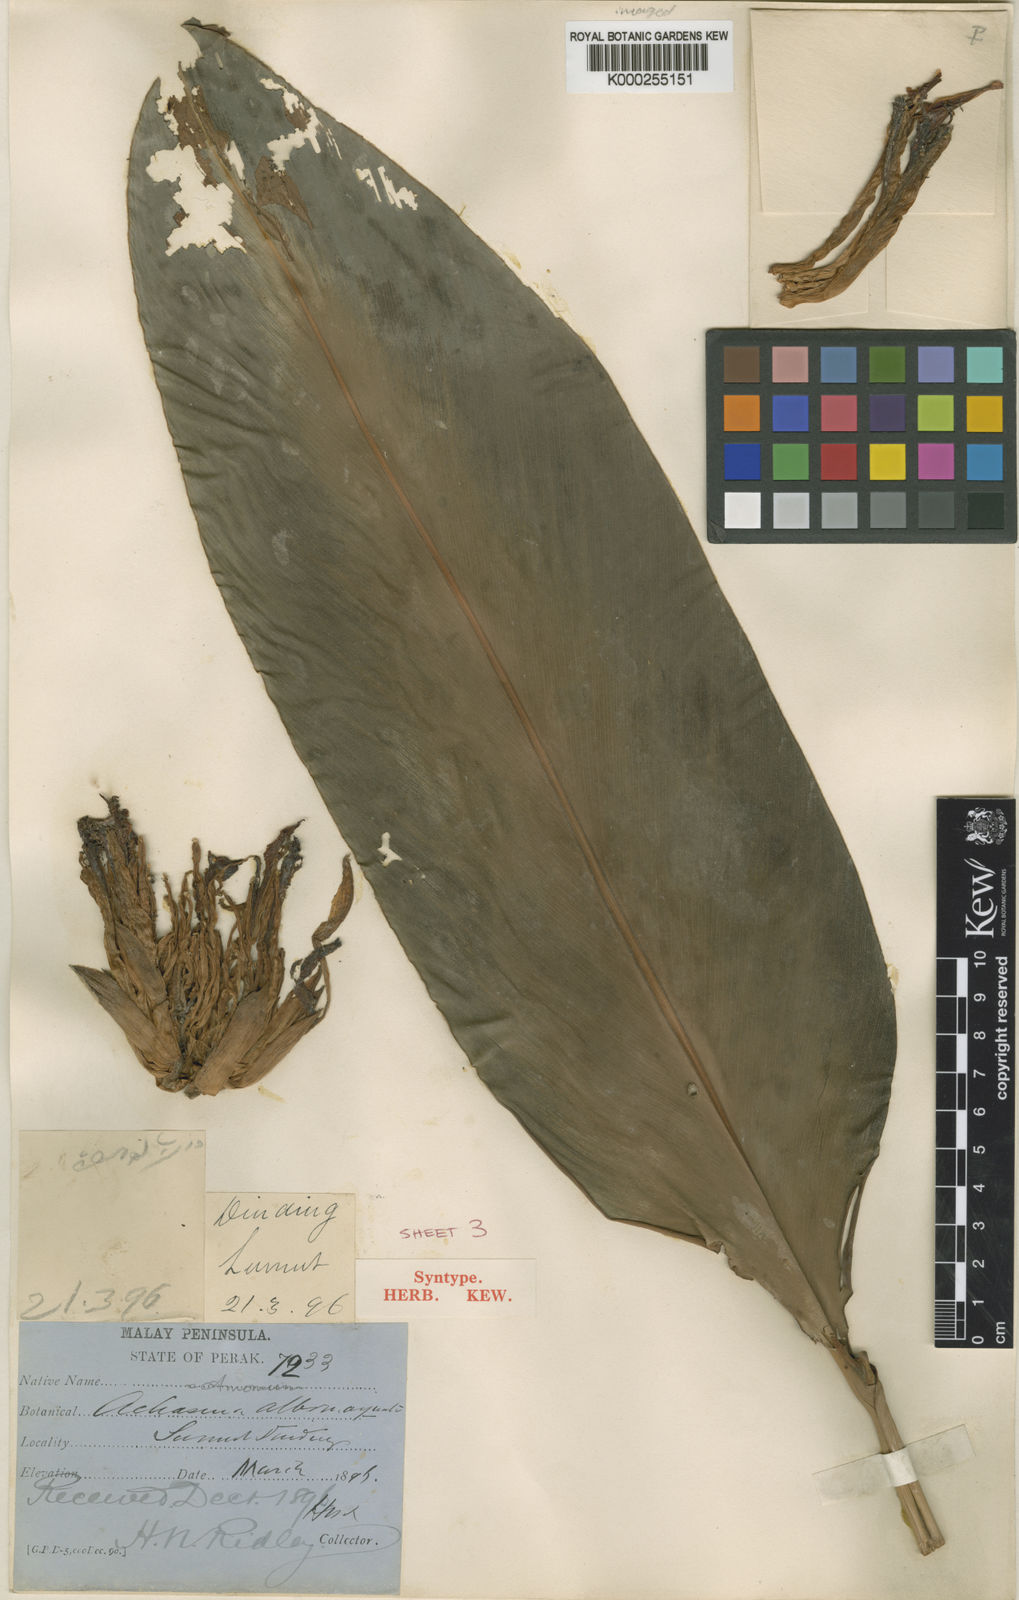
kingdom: Plantae
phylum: Tracheophyta
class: Liliopsida
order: Zingiberales
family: Zingiberaceae
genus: Etlingera
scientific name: Etlingera metriocheilos
